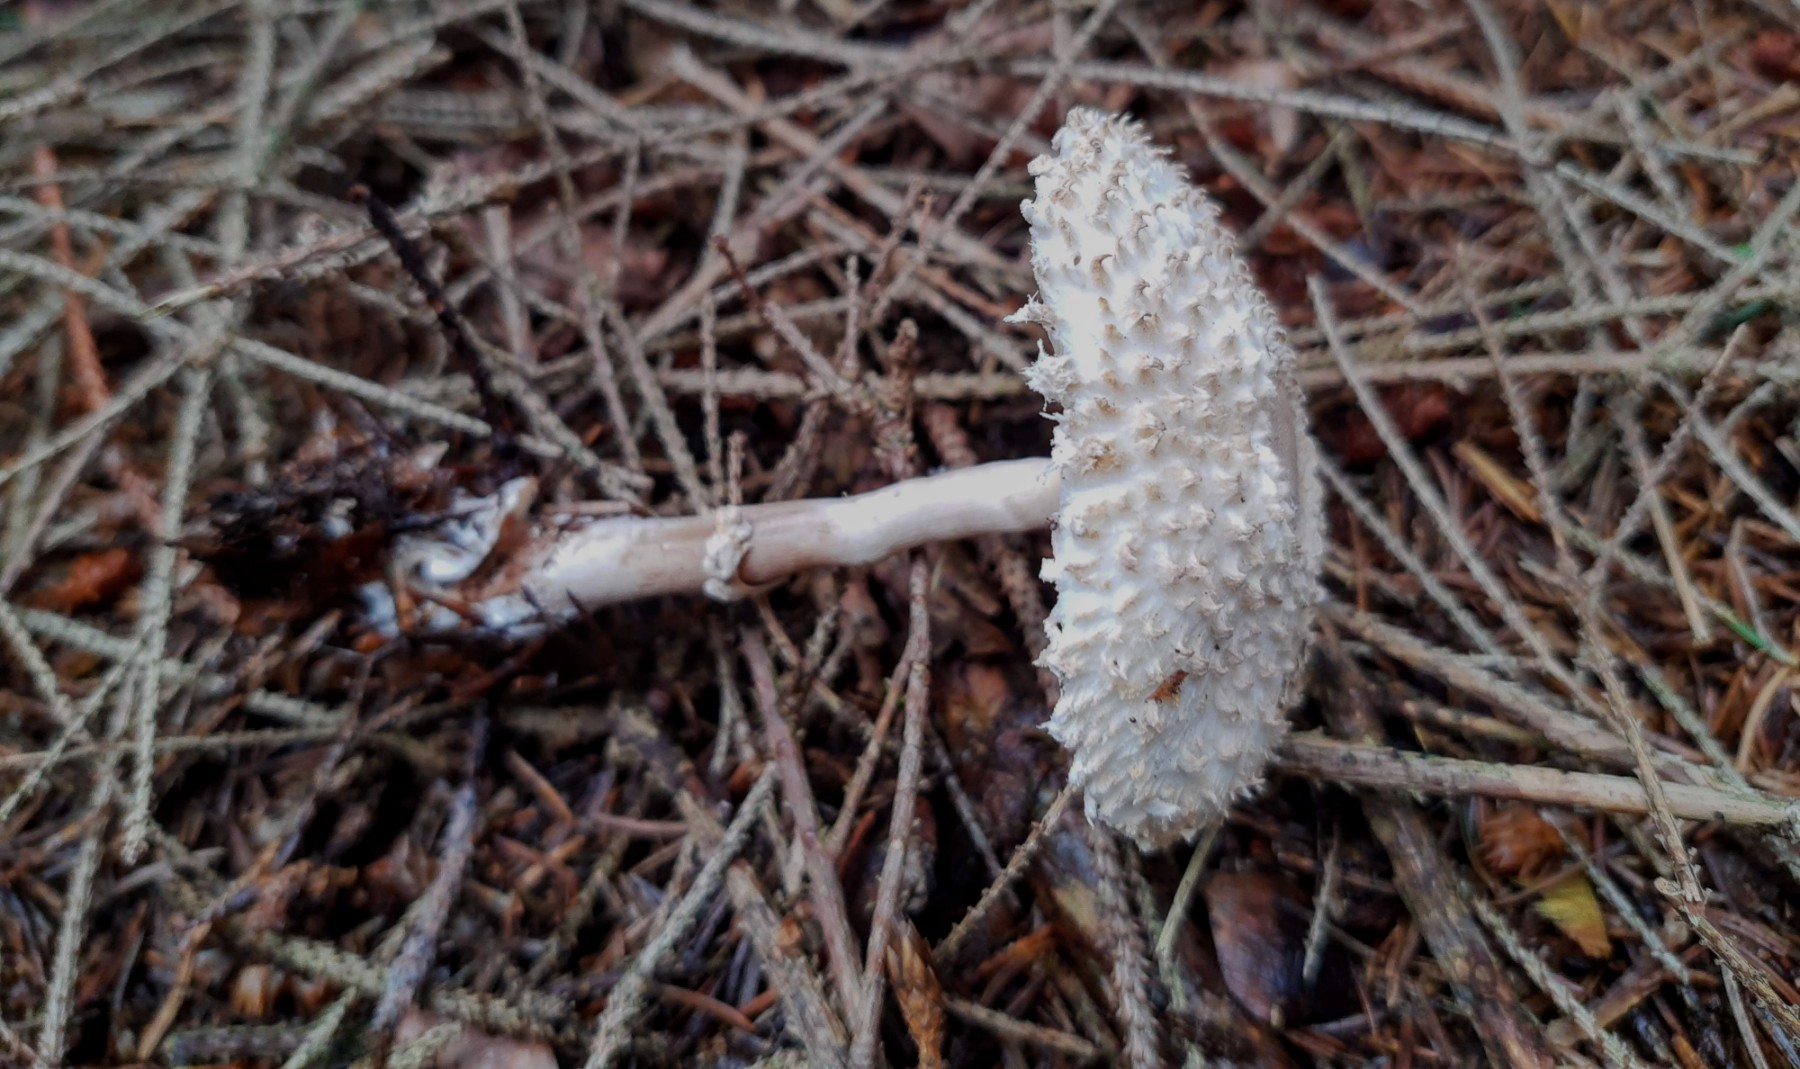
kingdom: Fungi
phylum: Basidiomycota
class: Agaricomycetes
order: Agaricales
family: Agaricaceae
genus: Leucoagaricus
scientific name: Leucoagaricus nympharum
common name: gran-silkehat
